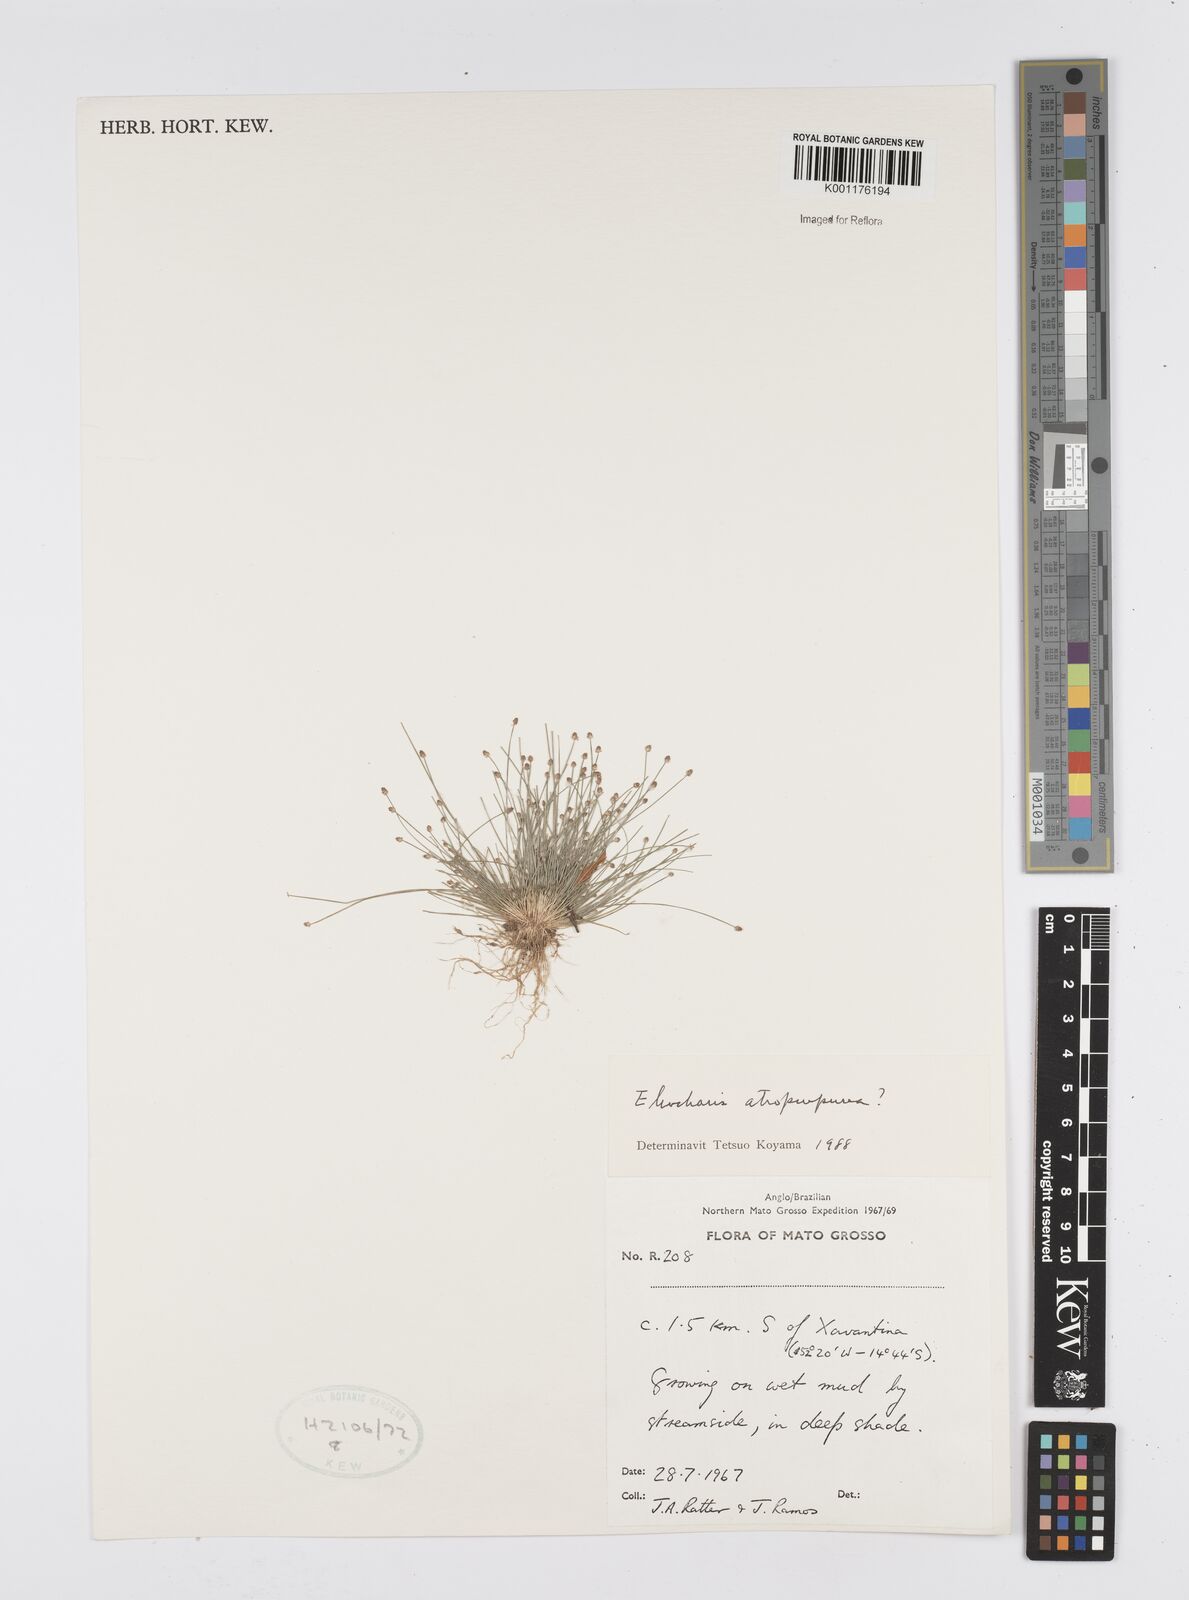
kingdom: Plantae
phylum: Tracheophyta
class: Liliopsida
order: Poales
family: Cyperaceae
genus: Eleocharis
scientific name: Eleocharis capillacea
